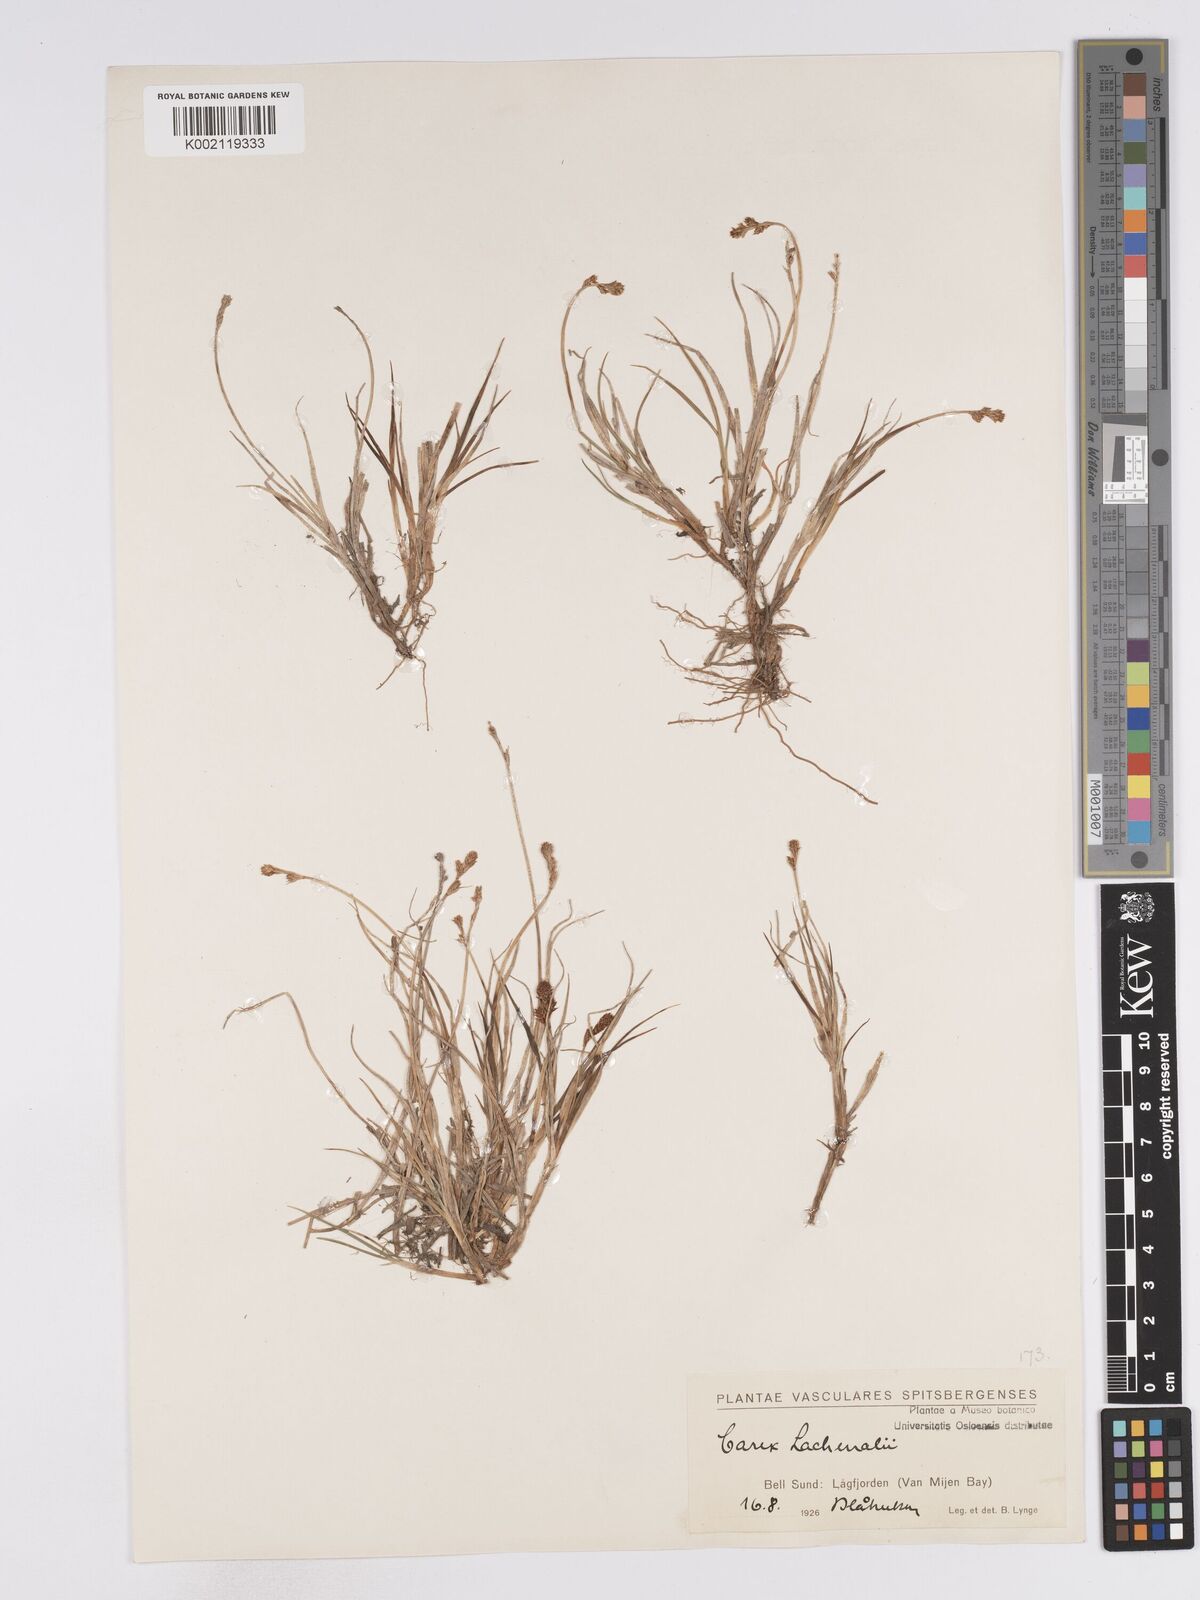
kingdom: Plantae
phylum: Tracheophyta
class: Liliopsida
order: Poales
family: Cyperaceae
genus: Carex
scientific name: Carex lachenalii
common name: Hare's-foot sedge
